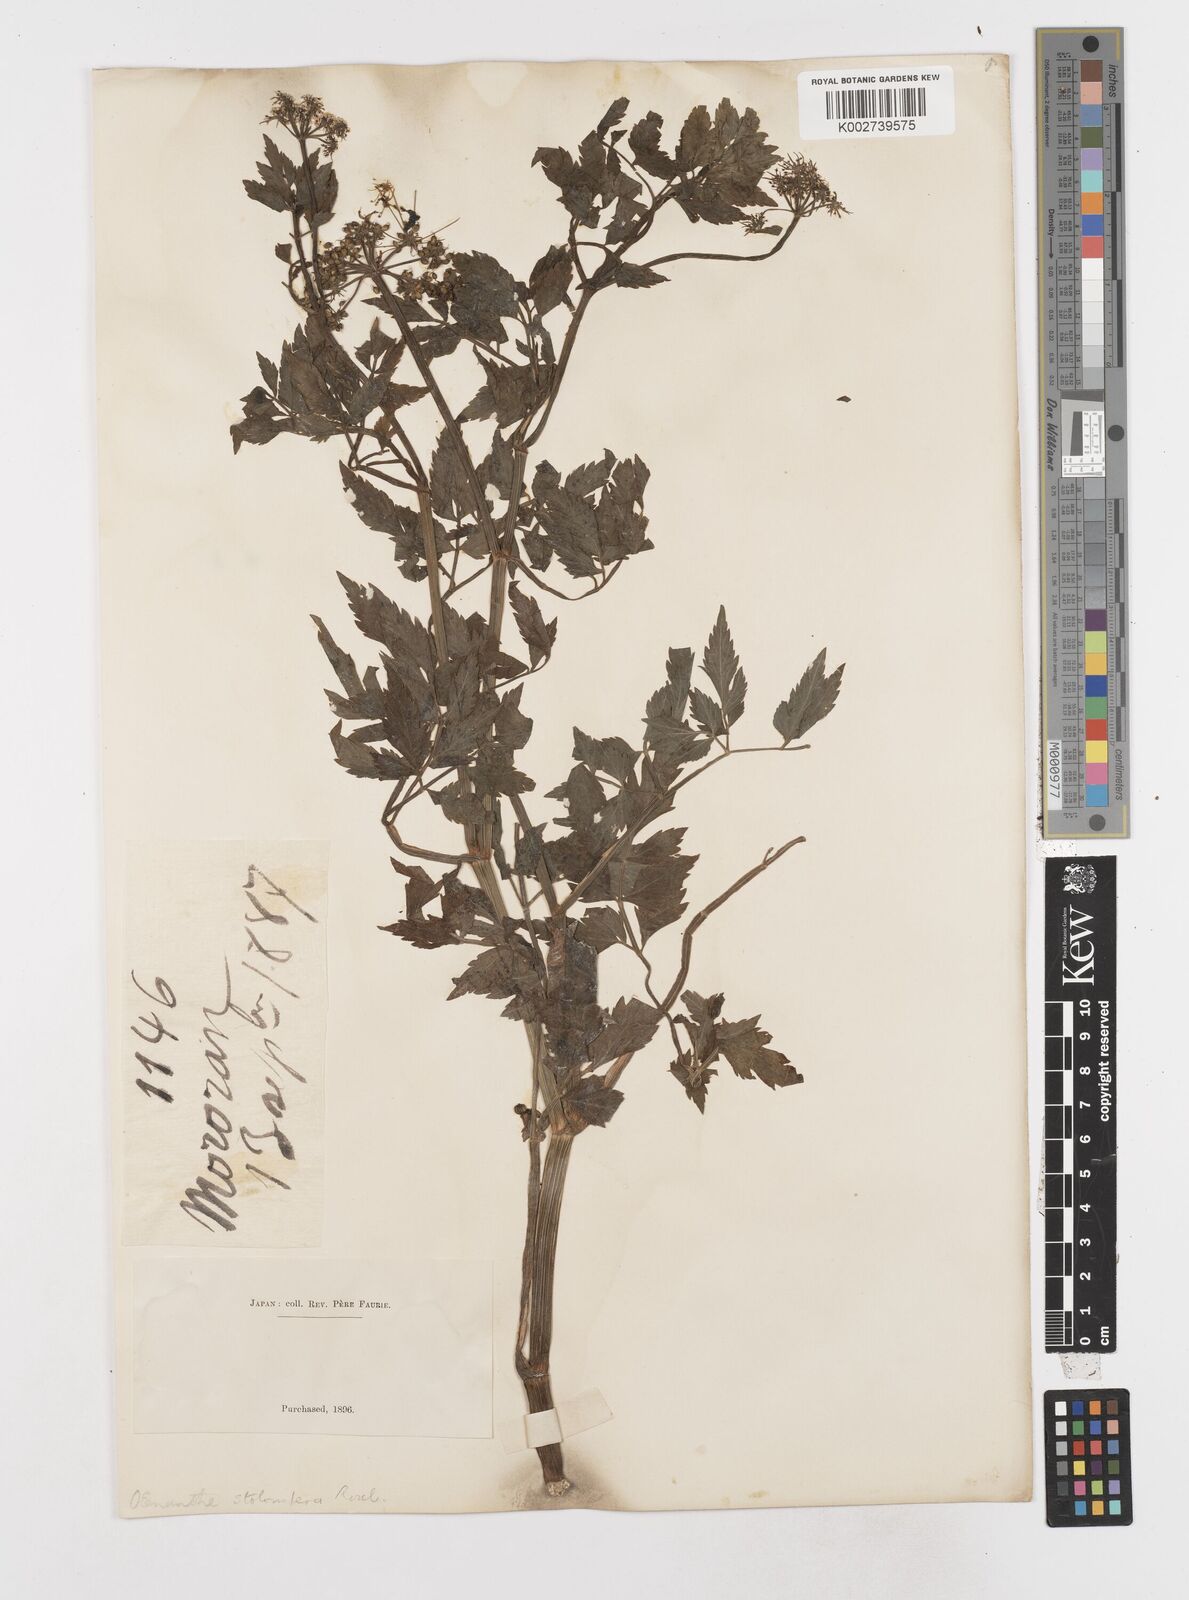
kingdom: Plantae
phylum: Tracheophyta
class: Magnoliopsida
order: Apiales
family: Apiaceae
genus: Oenanthe
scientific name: Oenanthe javanica
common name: Java water-dropwort
